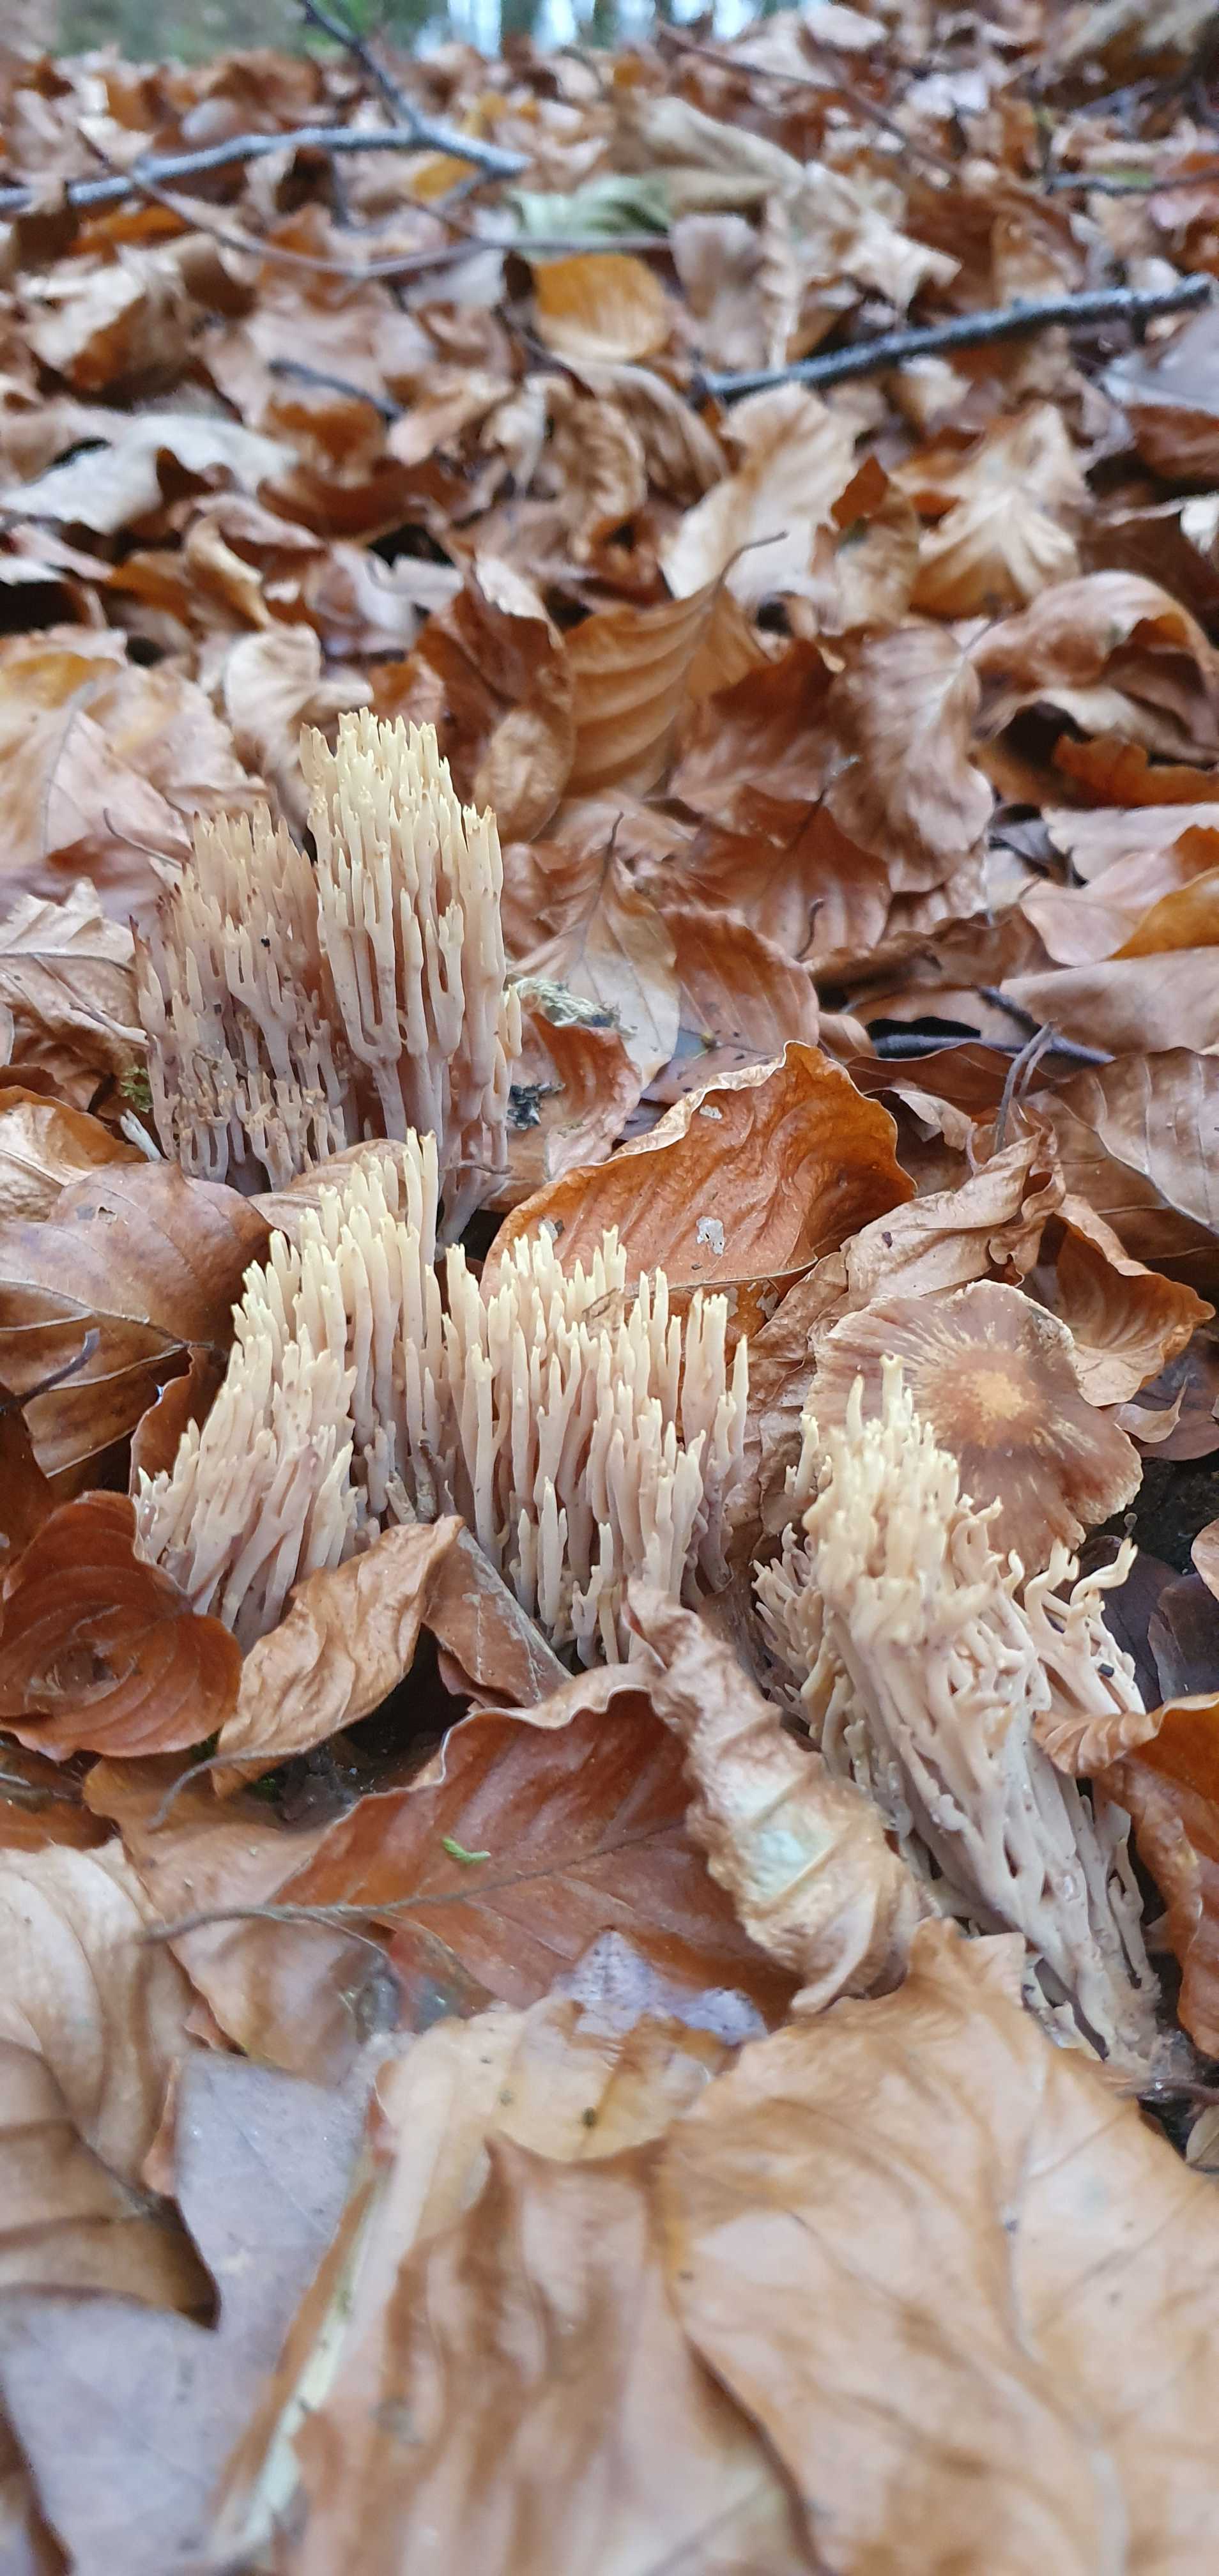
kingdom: Fungi
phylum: Basidiomycota
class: Agaricomycetes
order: Gomphales
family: Gomphaceae
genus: Ramaria
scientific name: Ramaria stricta
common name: rank koralsvamp
